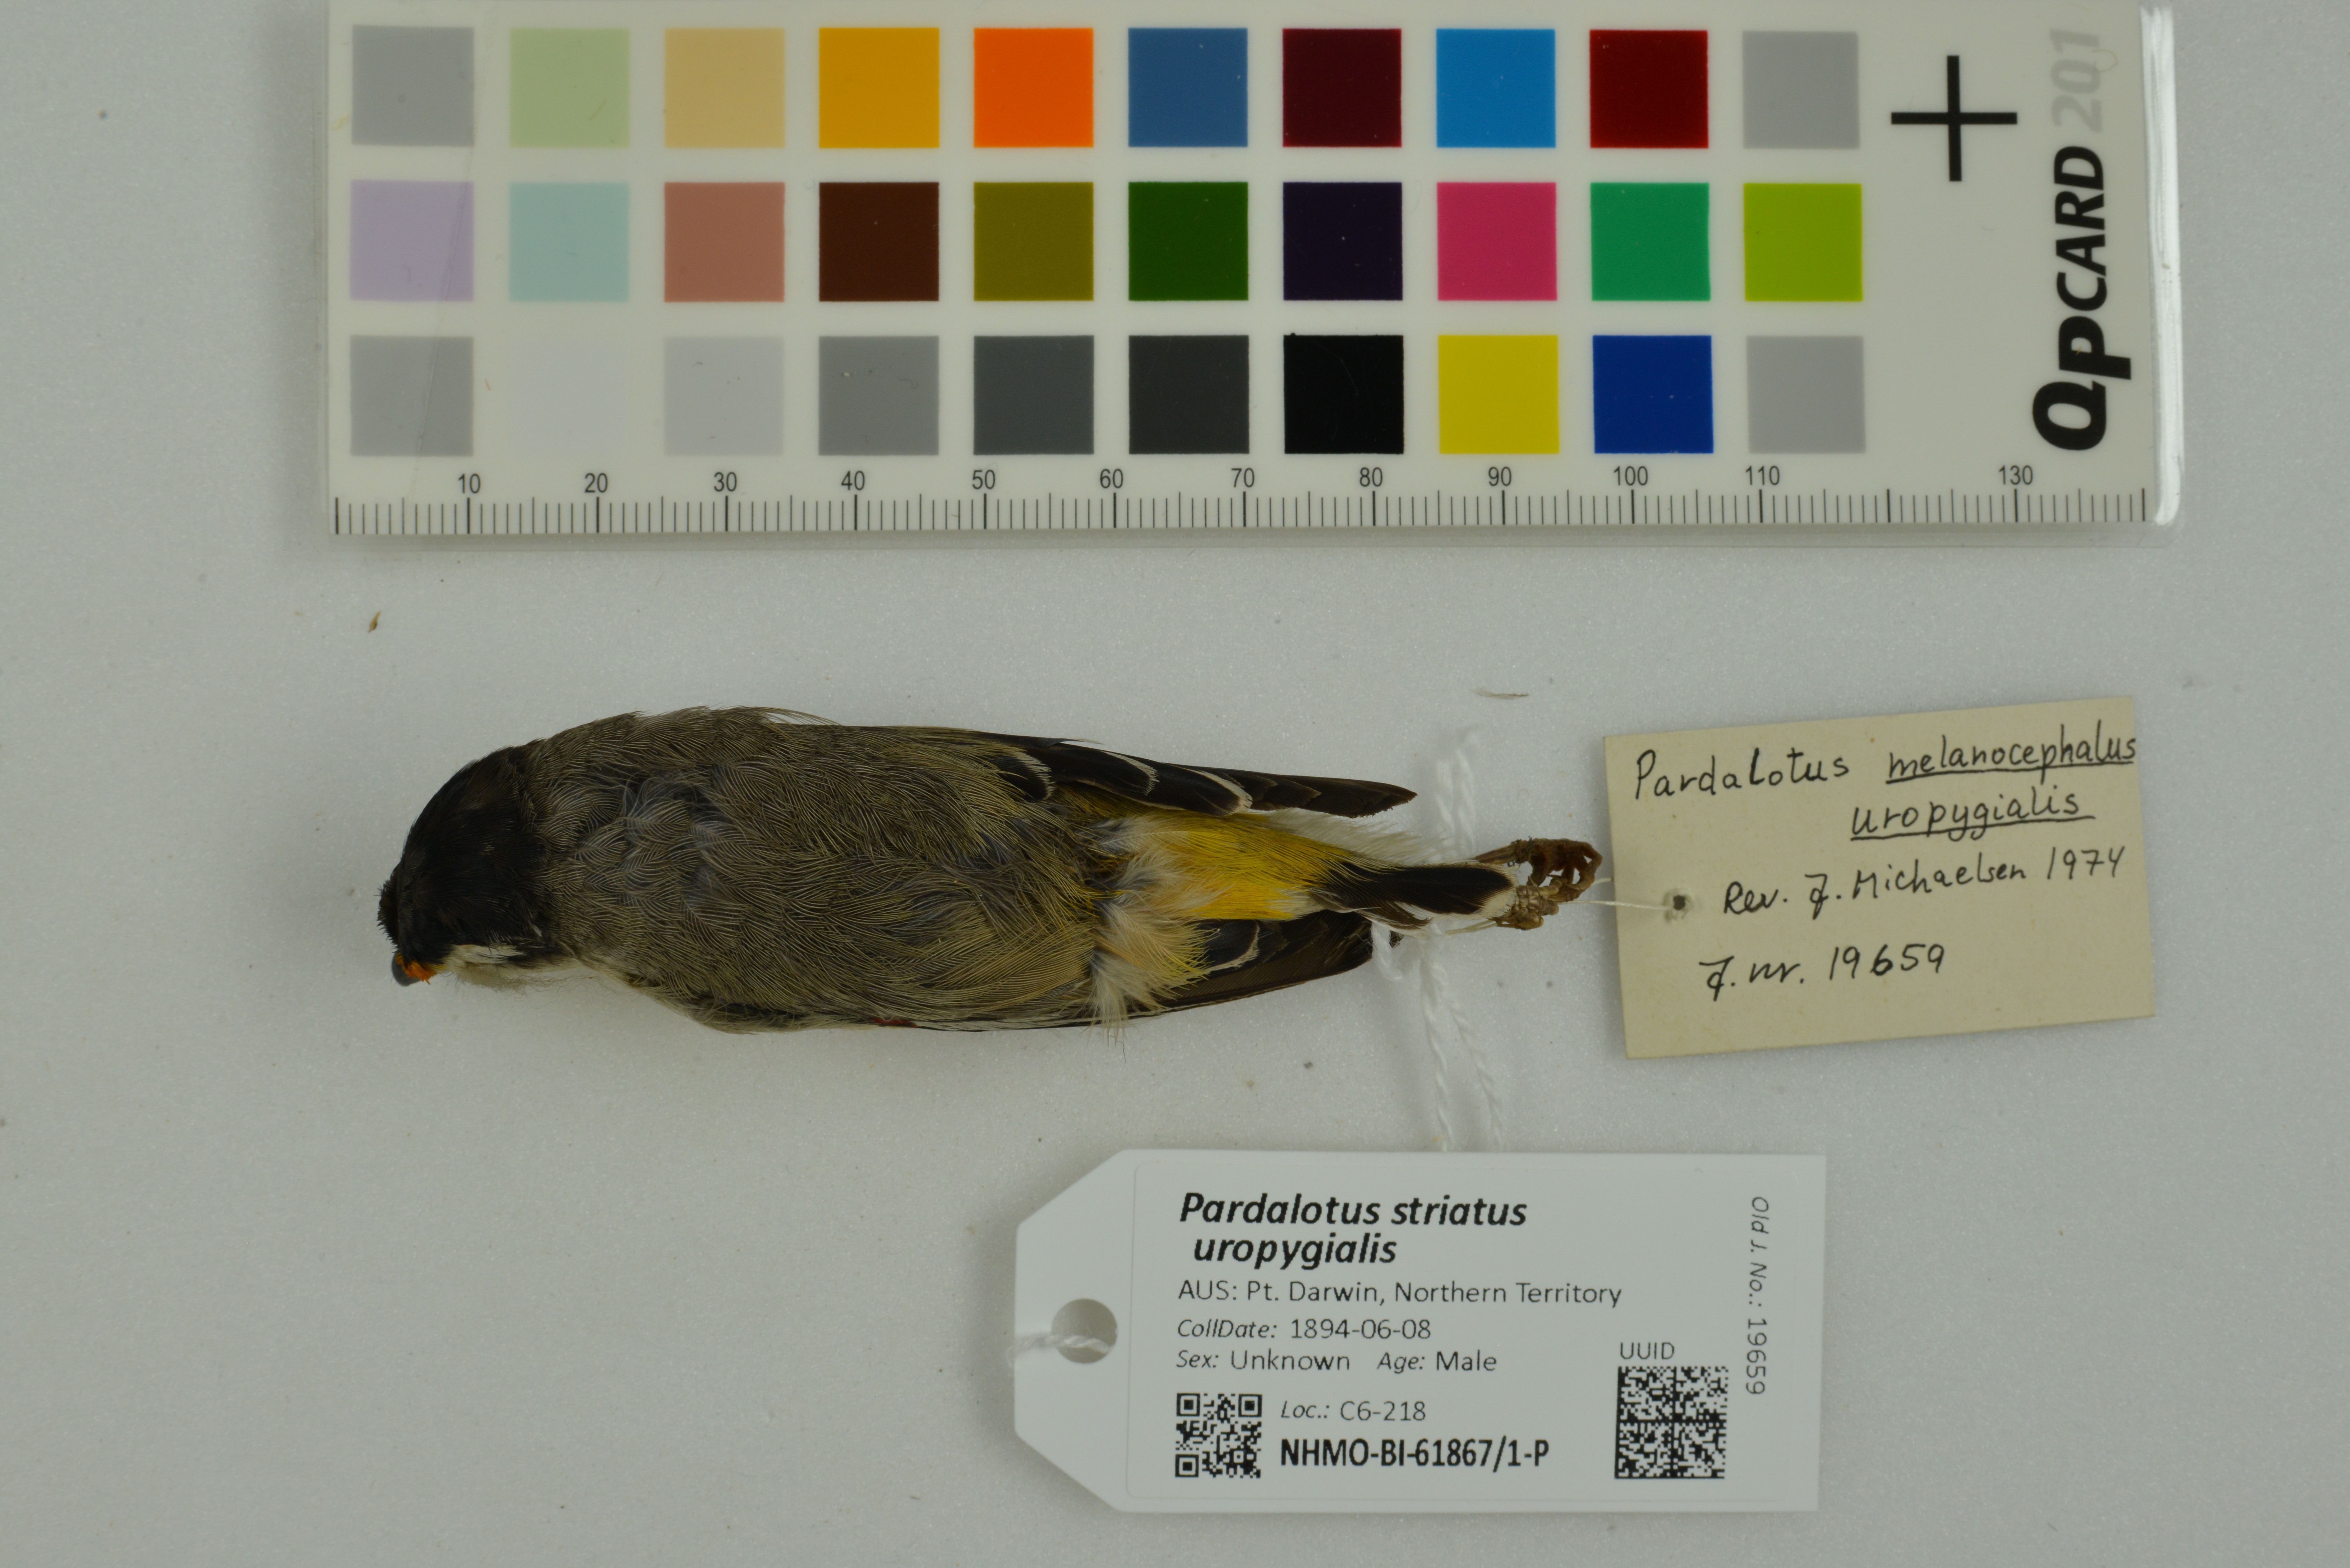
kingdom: Animalia
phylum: Chordata
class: Aves
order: Passeriformes
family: Pardalotidae
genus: Pardalotus
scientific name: Pardalotus striatus
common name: Striated pardalote
